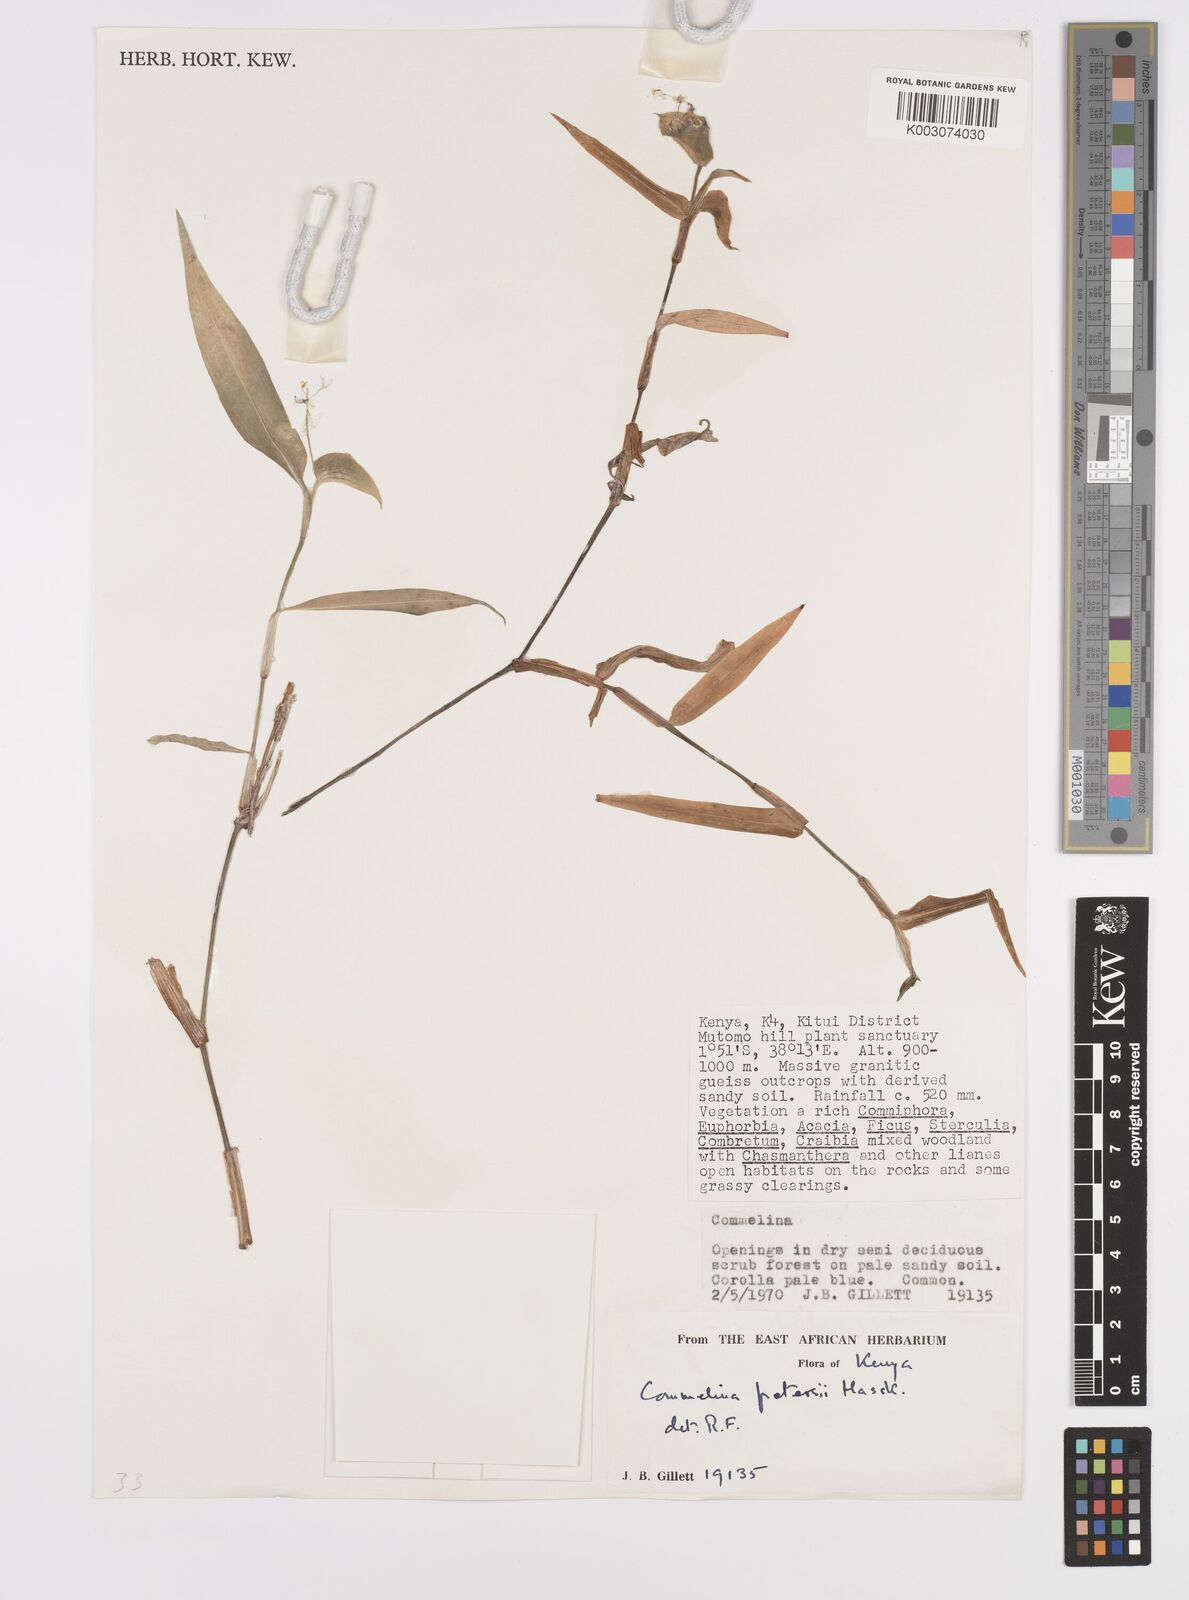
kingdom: Plantae
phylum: Tracheophyta
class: Liliopsida
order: Commelinales
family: Commelinaceae
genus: Commelina
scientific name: Commelina petersii
